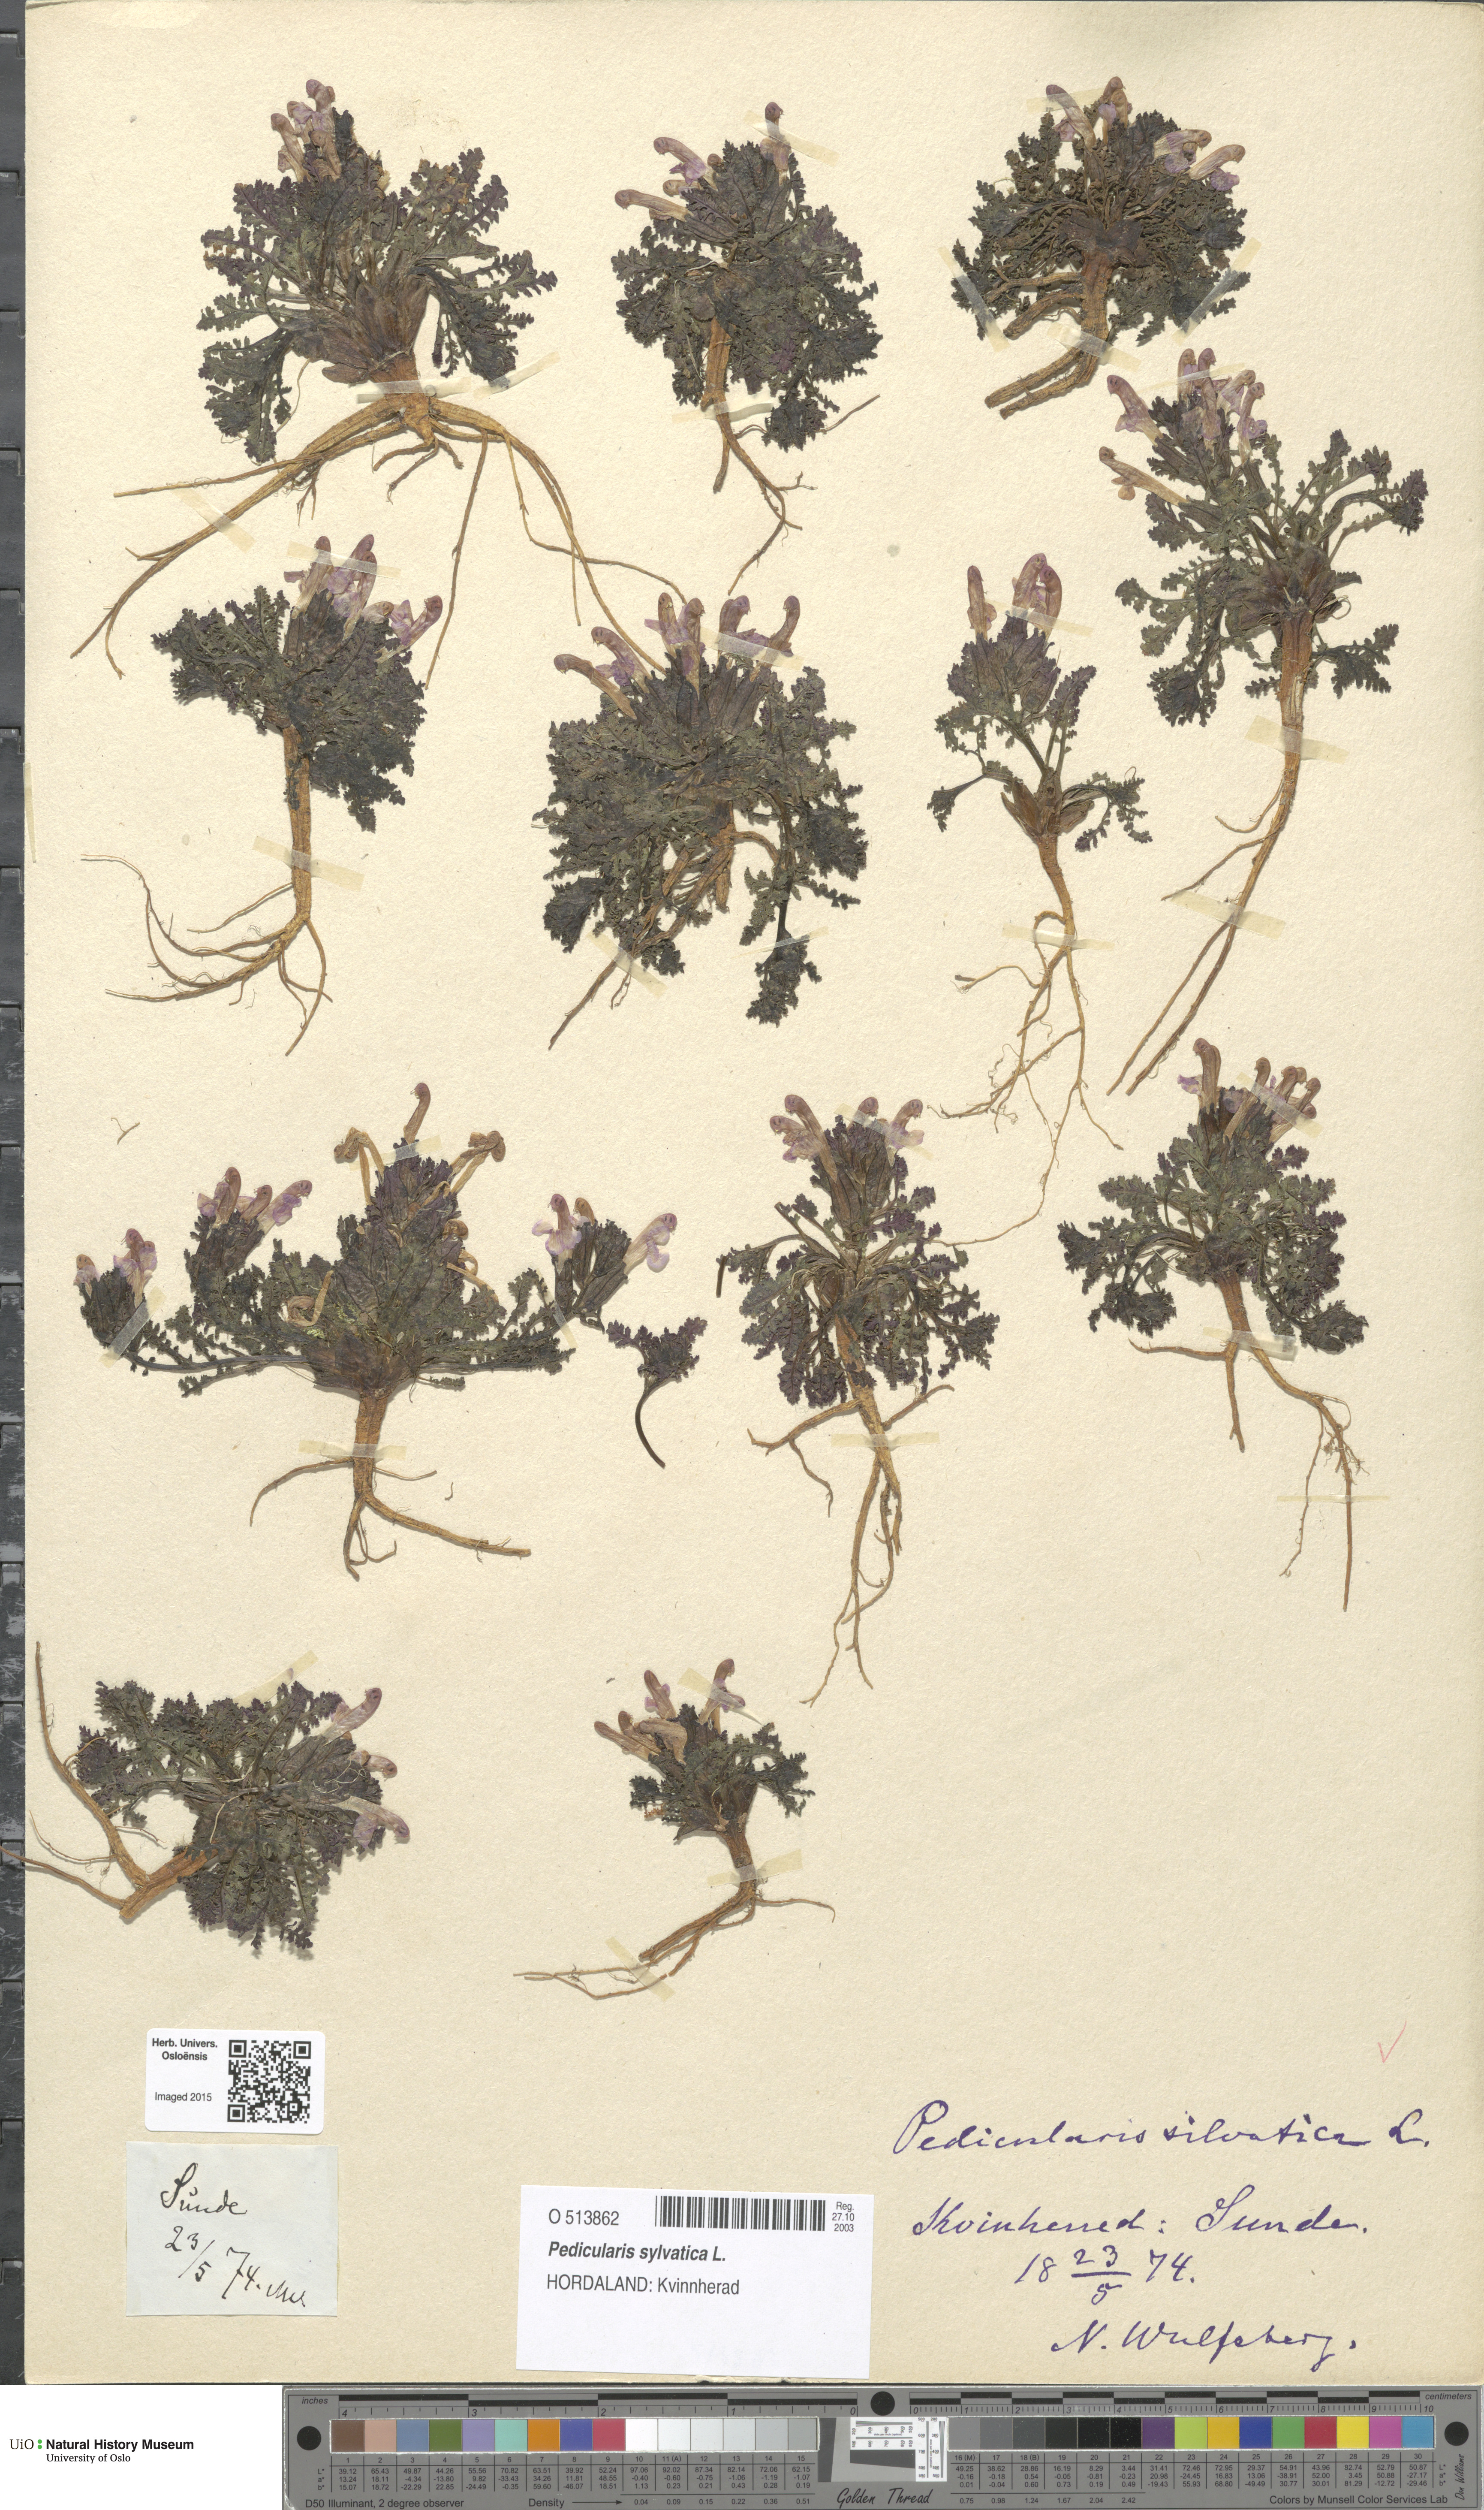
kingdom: Plantae
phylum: Tracheophyta
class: Magnoliopsida
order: Lamiales
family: Orobanchaceae
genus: Pedicularis
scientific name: Pedicularis sylvatica
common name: Lousewort
